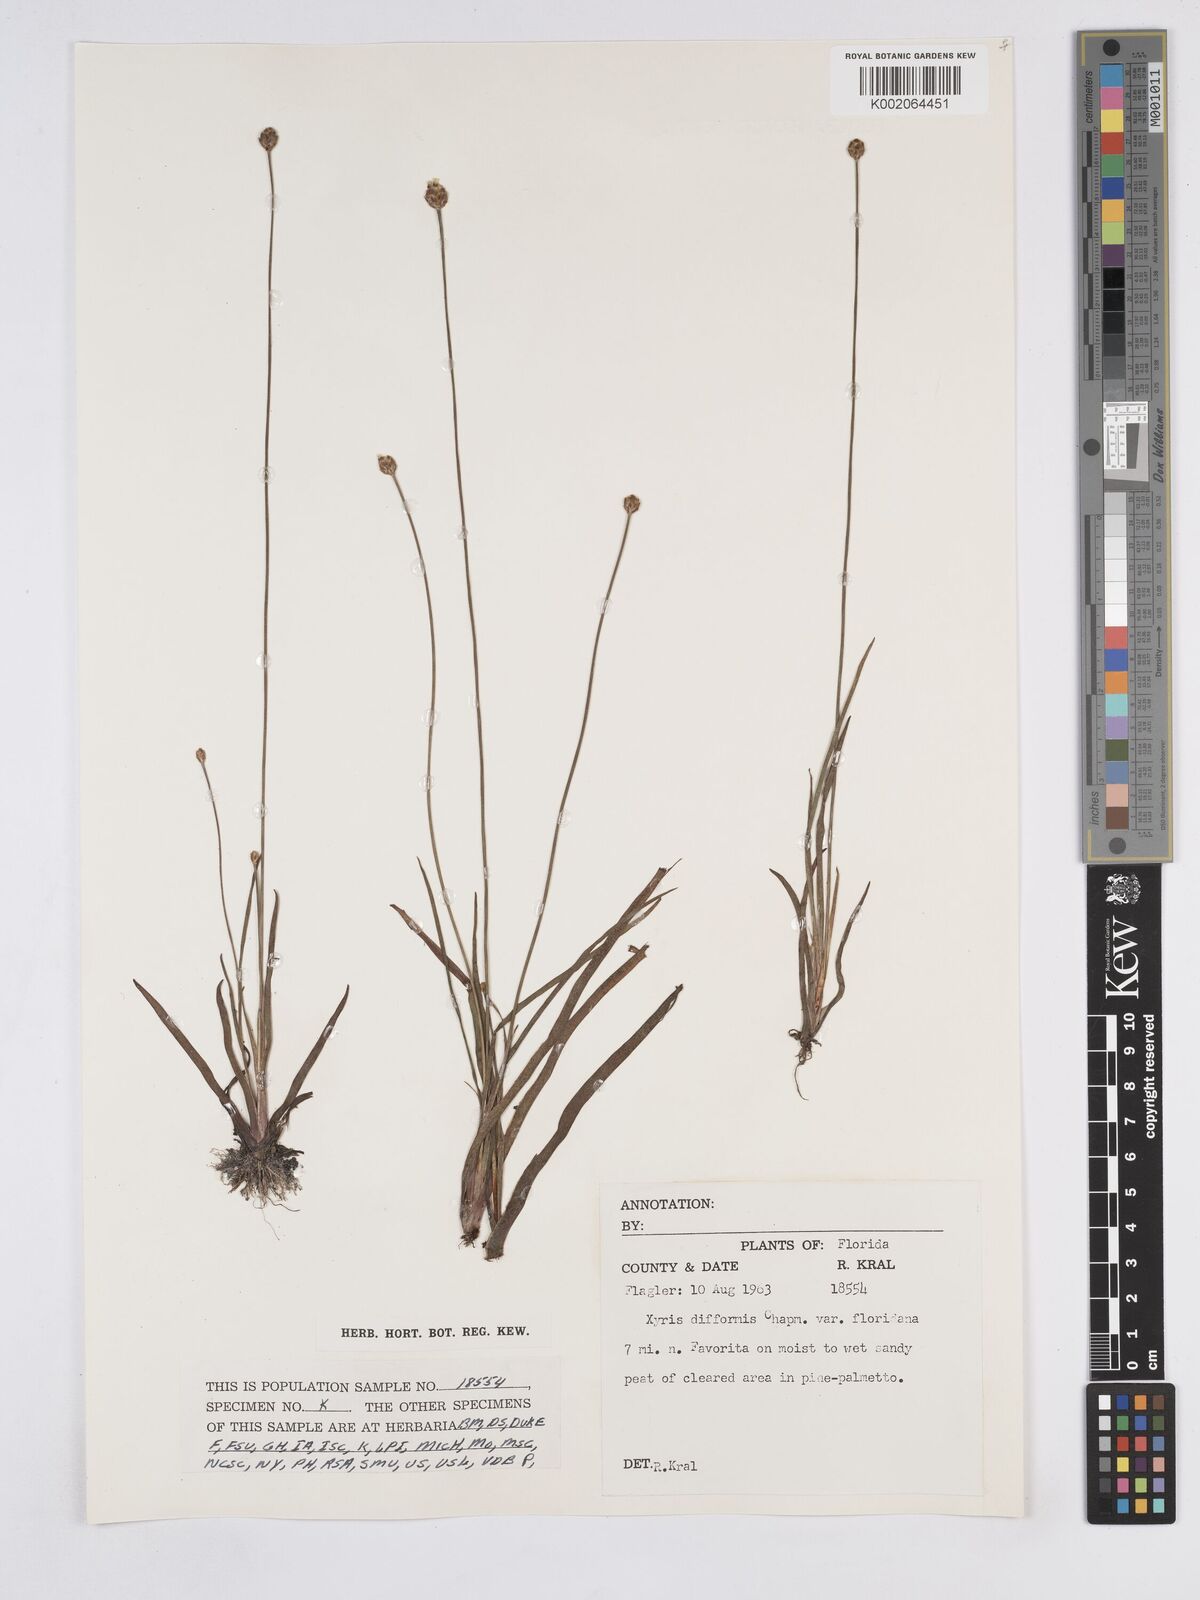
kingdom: Plantae
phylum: Tracheophyta
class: Liliopsida
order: Poales
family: Xyridaceae
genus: Xyris
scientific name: Xyris floridana
